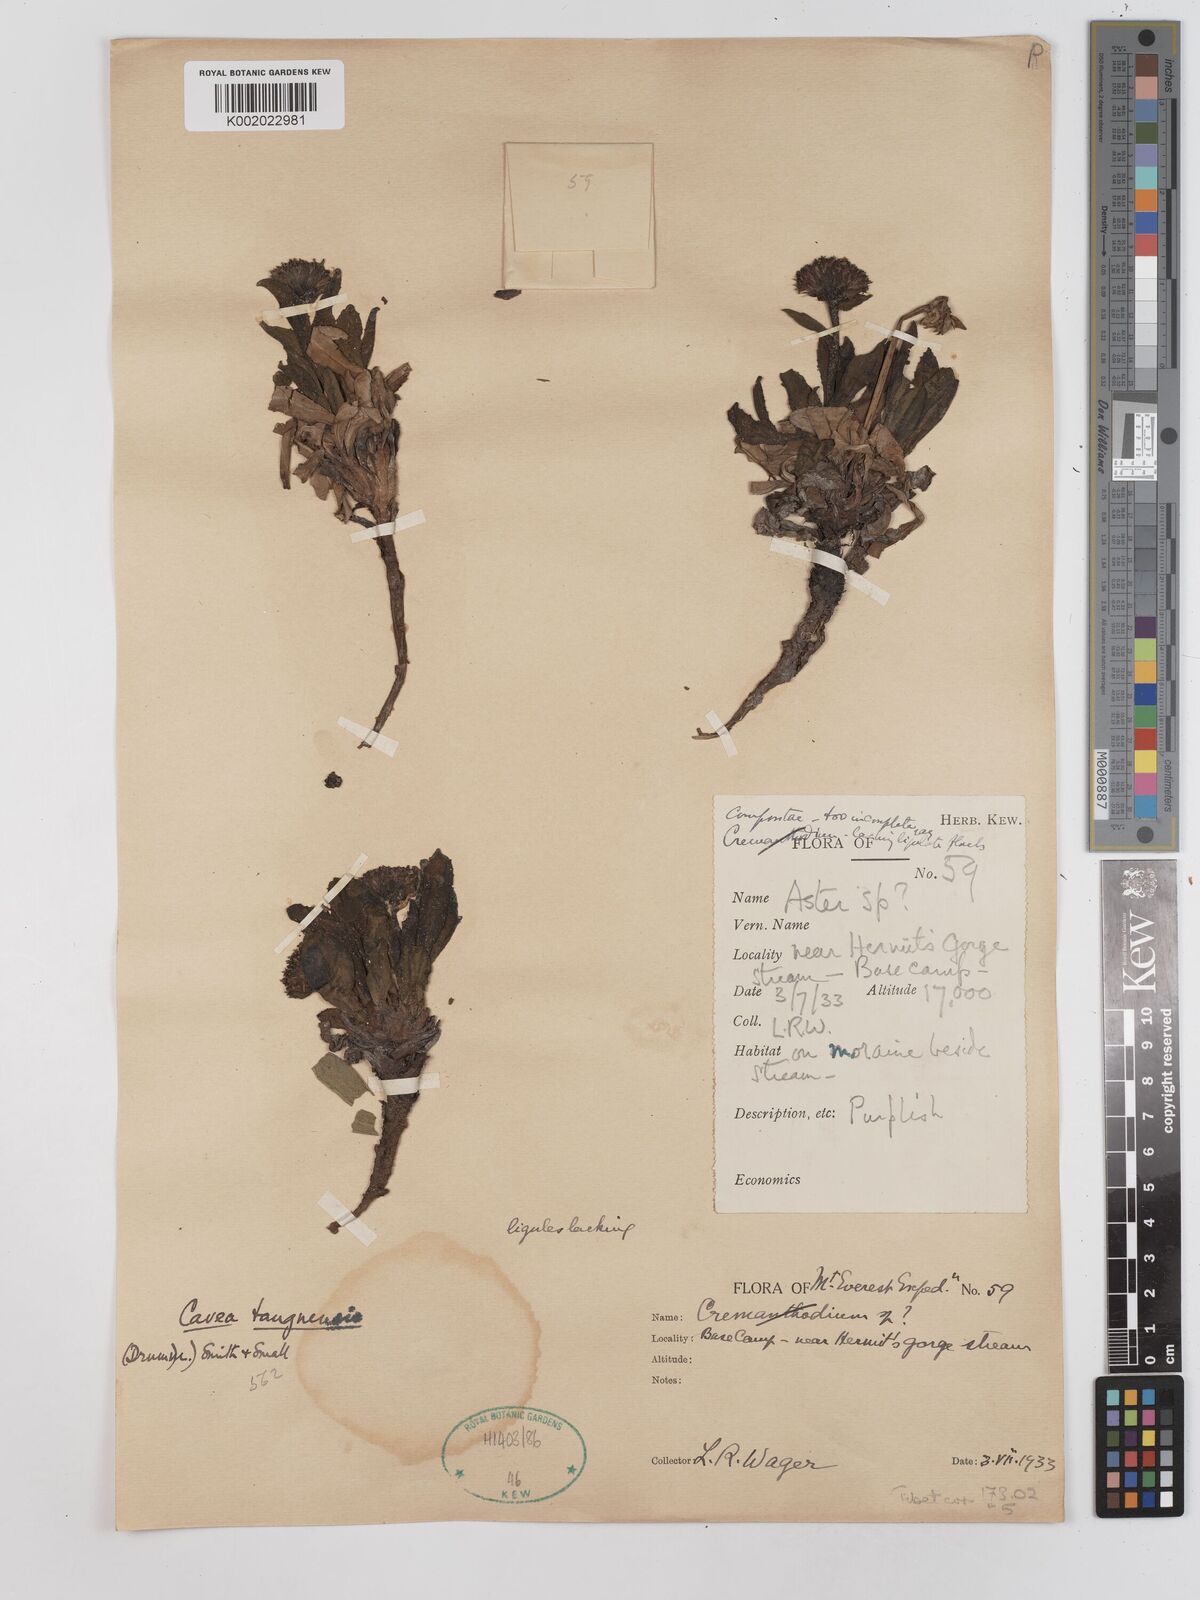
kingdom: Plantae
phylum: Tracheophyta
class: Magnoliopsida
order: Asterales
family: Asteraceae
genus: Cavea
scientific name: Cavea tanguensis
